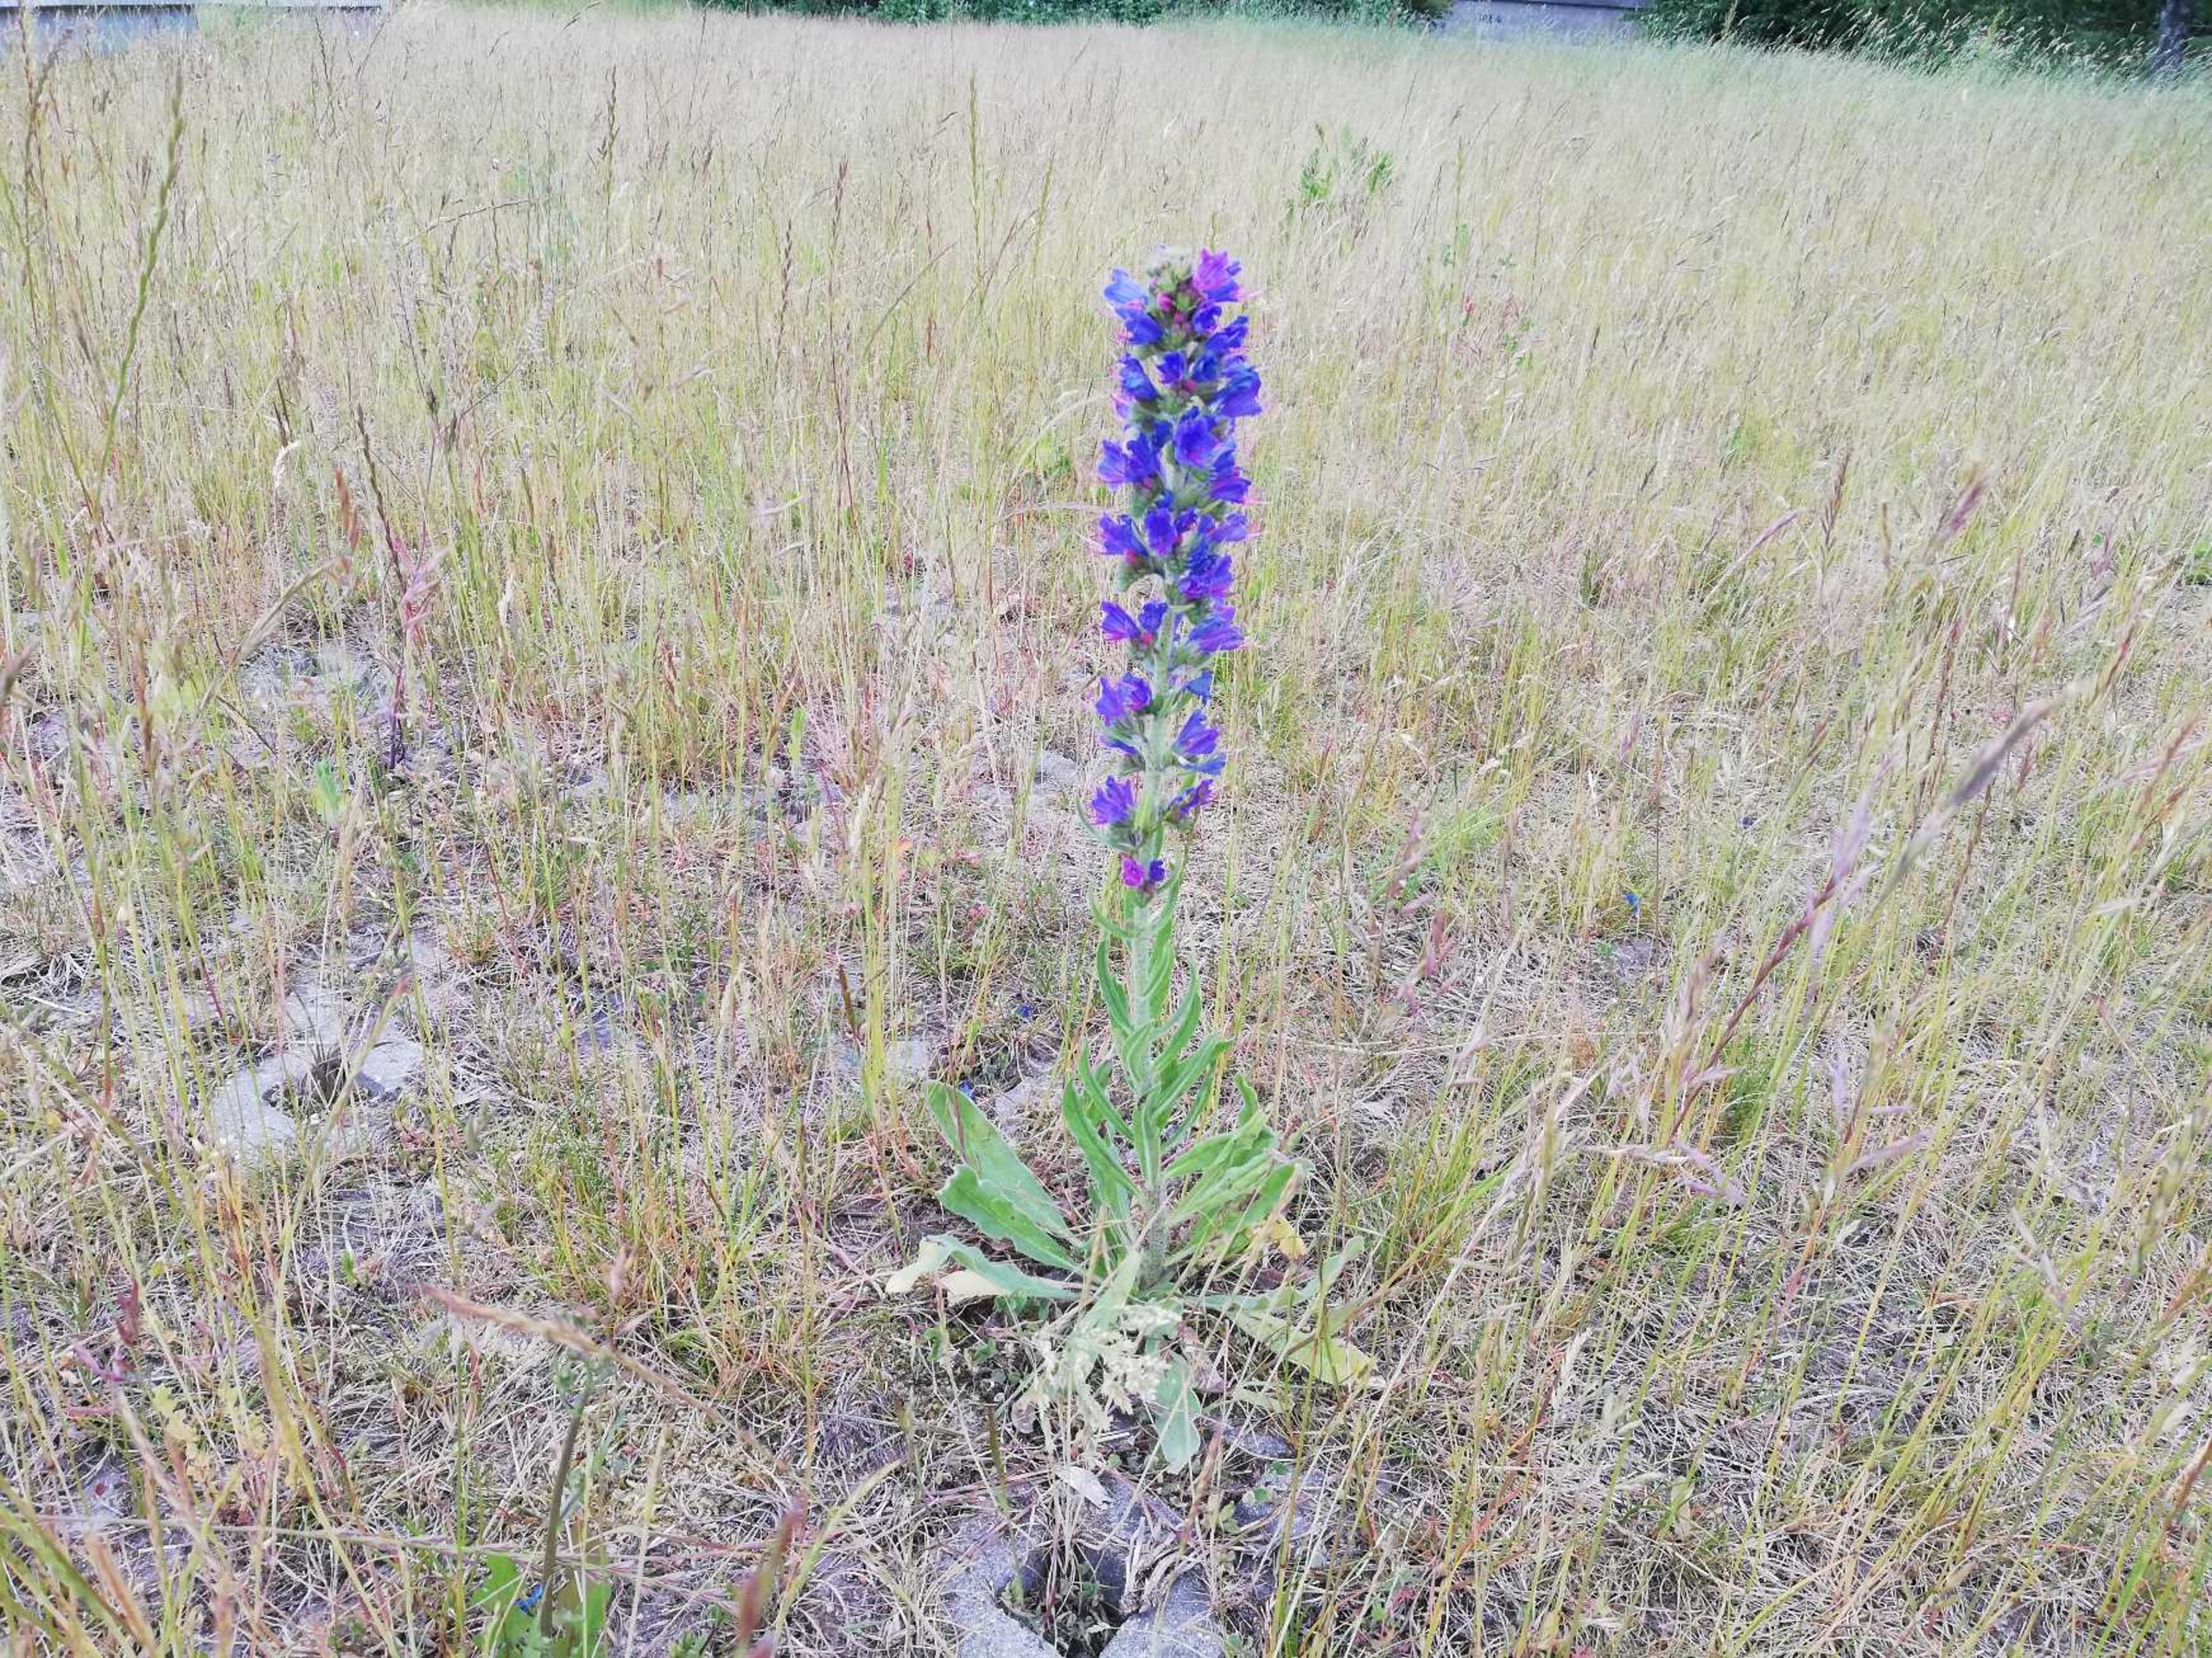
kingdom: Plantae
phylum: Tracheophyta
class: Magnoliopsida
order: Boraginales
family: Boraginaceae
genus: Echium
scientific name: Echium vulgare
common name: Slangehoved
